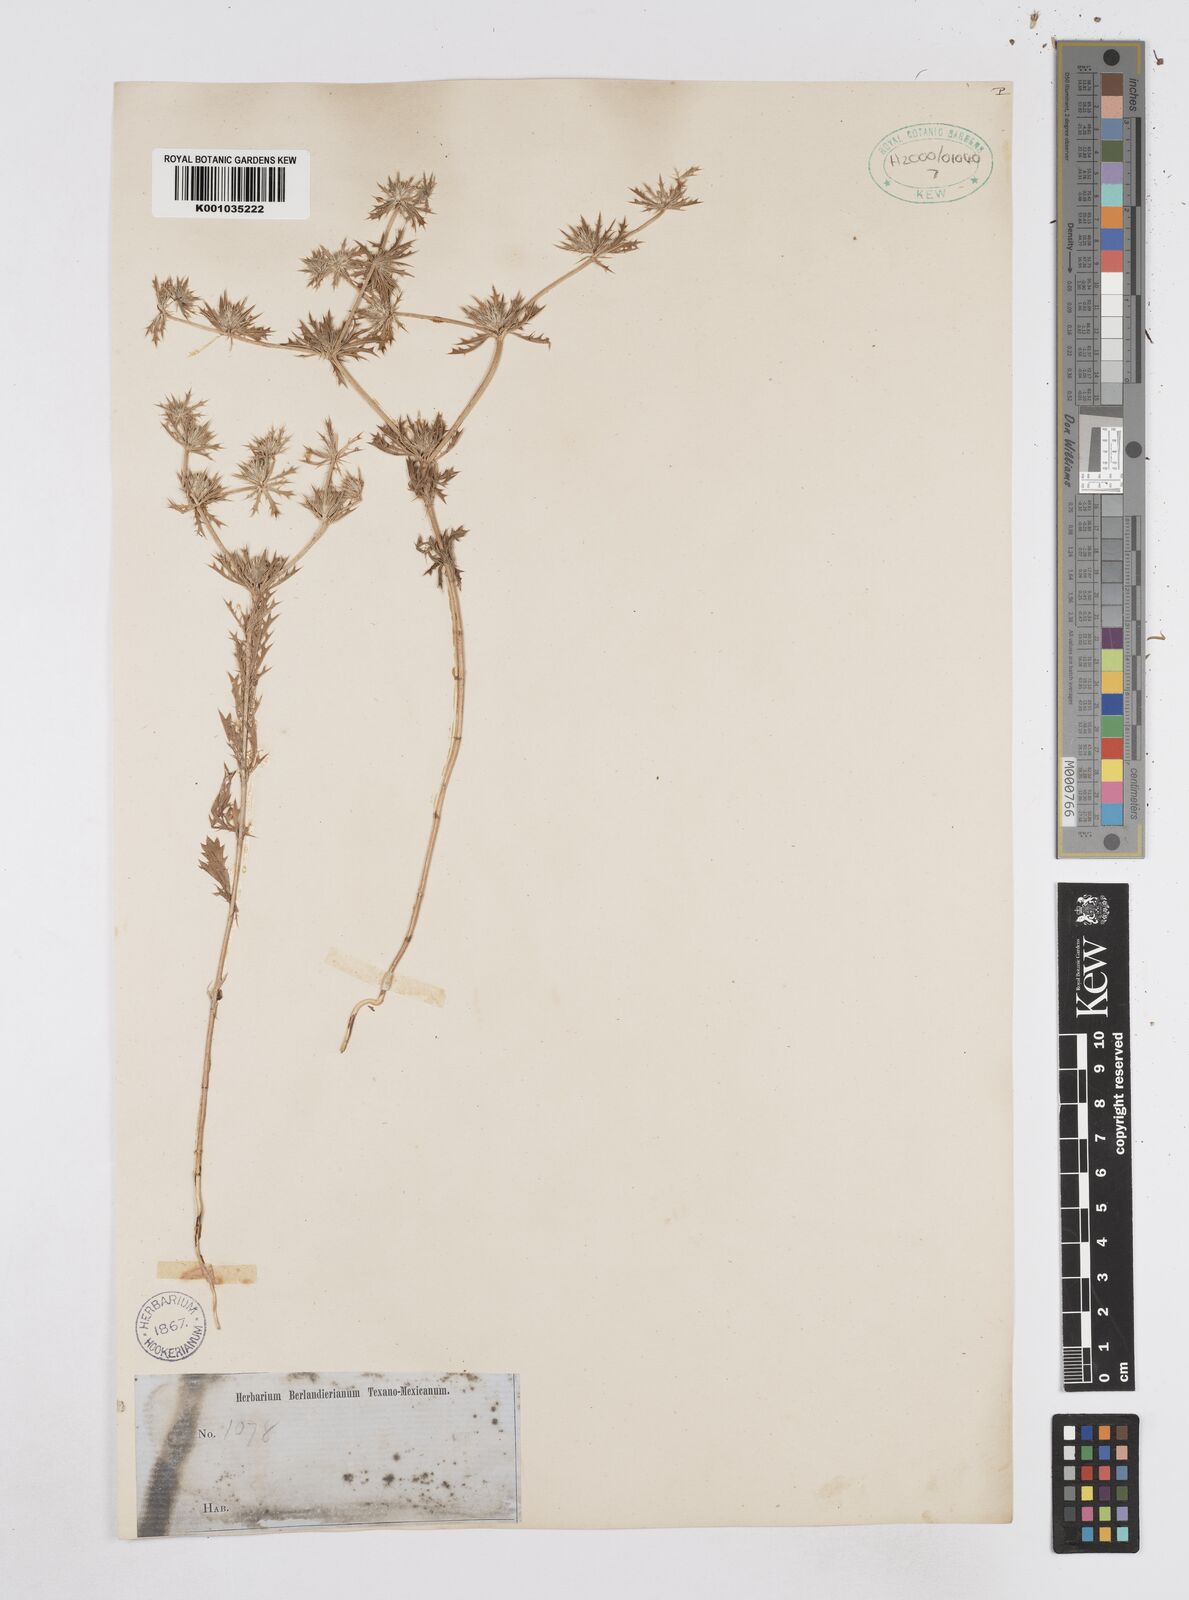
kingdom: Plantae
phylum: Tracheophyta
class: Magnoliopsida
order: Apiales
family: Apiaceae
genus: Eryngium
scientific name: Eryngium
